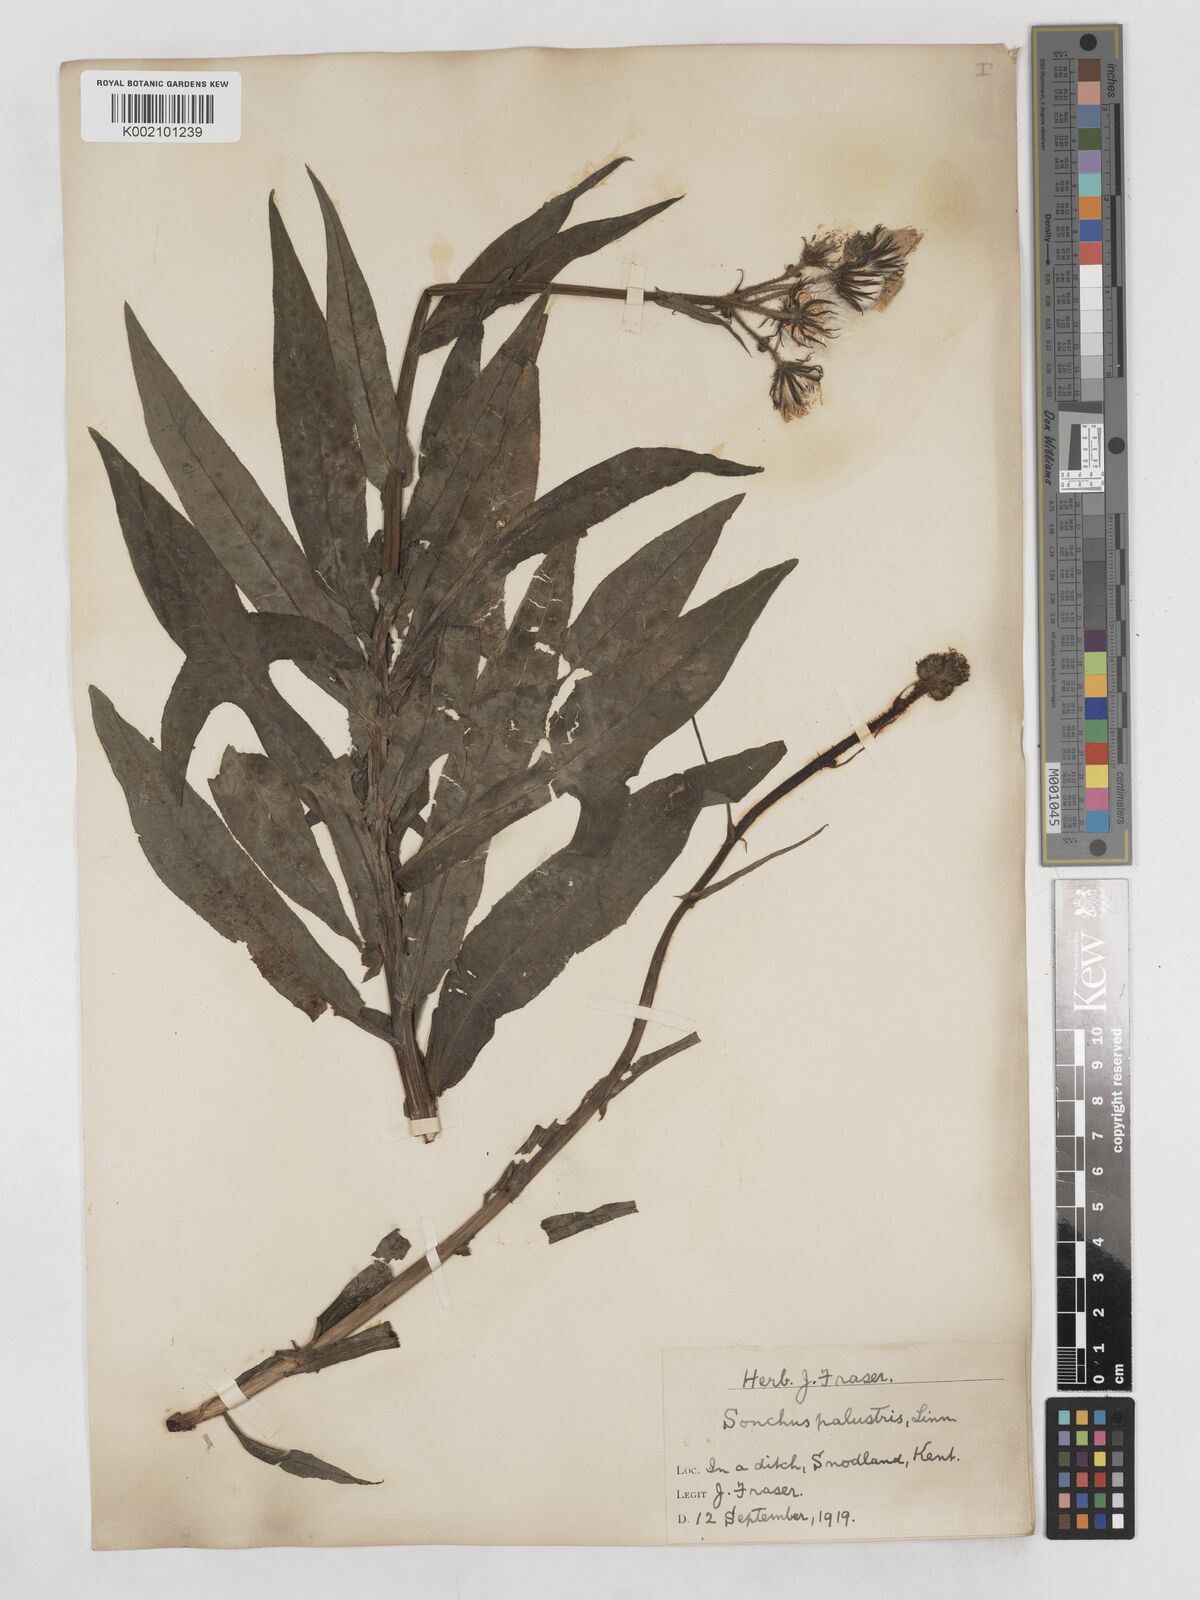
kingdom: Plantae
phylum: Tracheophyta
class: Magnoliopsida
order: Asterales
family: Asteraceae
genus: Sonchus
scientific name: Sonchus palustris
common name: Marsh sow-thistle
